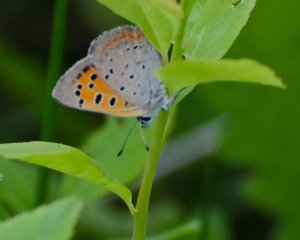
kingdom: Animalia
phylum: Arthropoda
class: Insecta
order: Lepidoptera
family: Lycaenidae
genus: Lycaena
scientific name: Lycaena phlaeas
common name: American Copper
